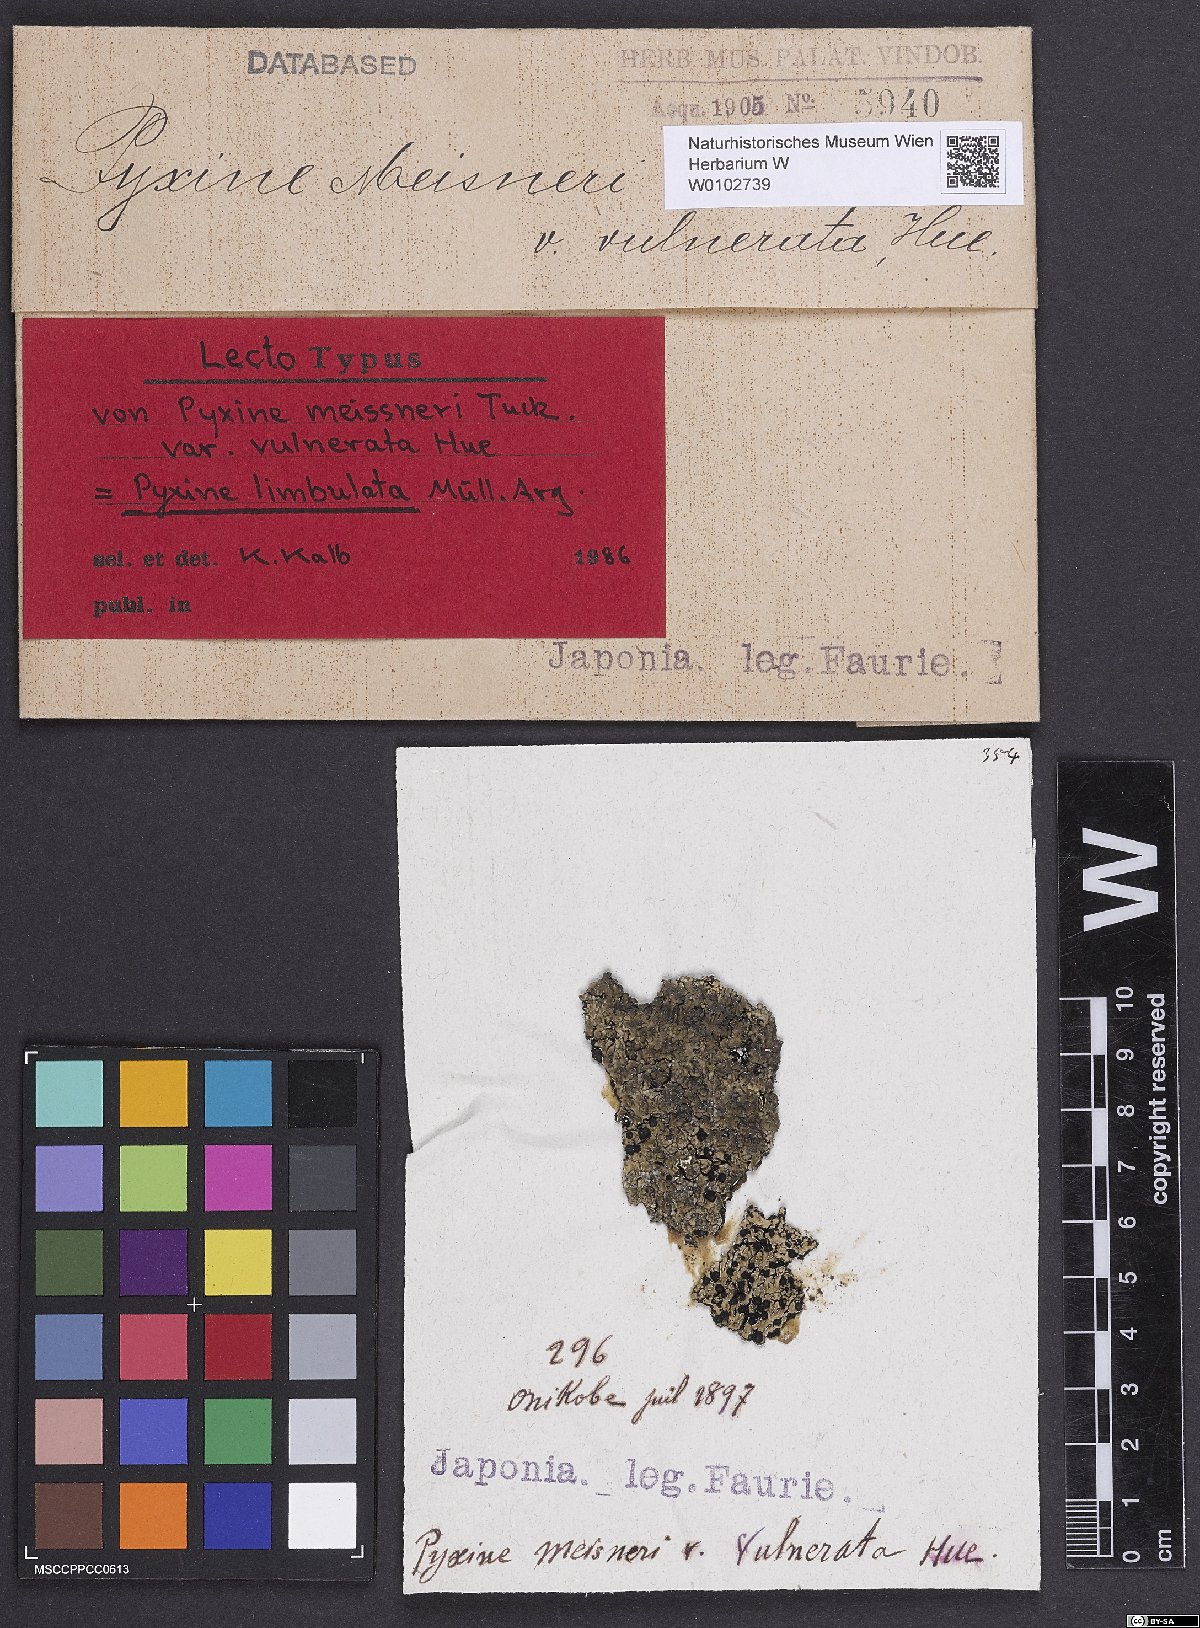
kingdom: Fungi
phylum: Ascomycota
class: Lecanoromycetes
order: Caliciales
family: Caliciaceae
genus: Pyxine
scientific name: Pyxine limbulata
